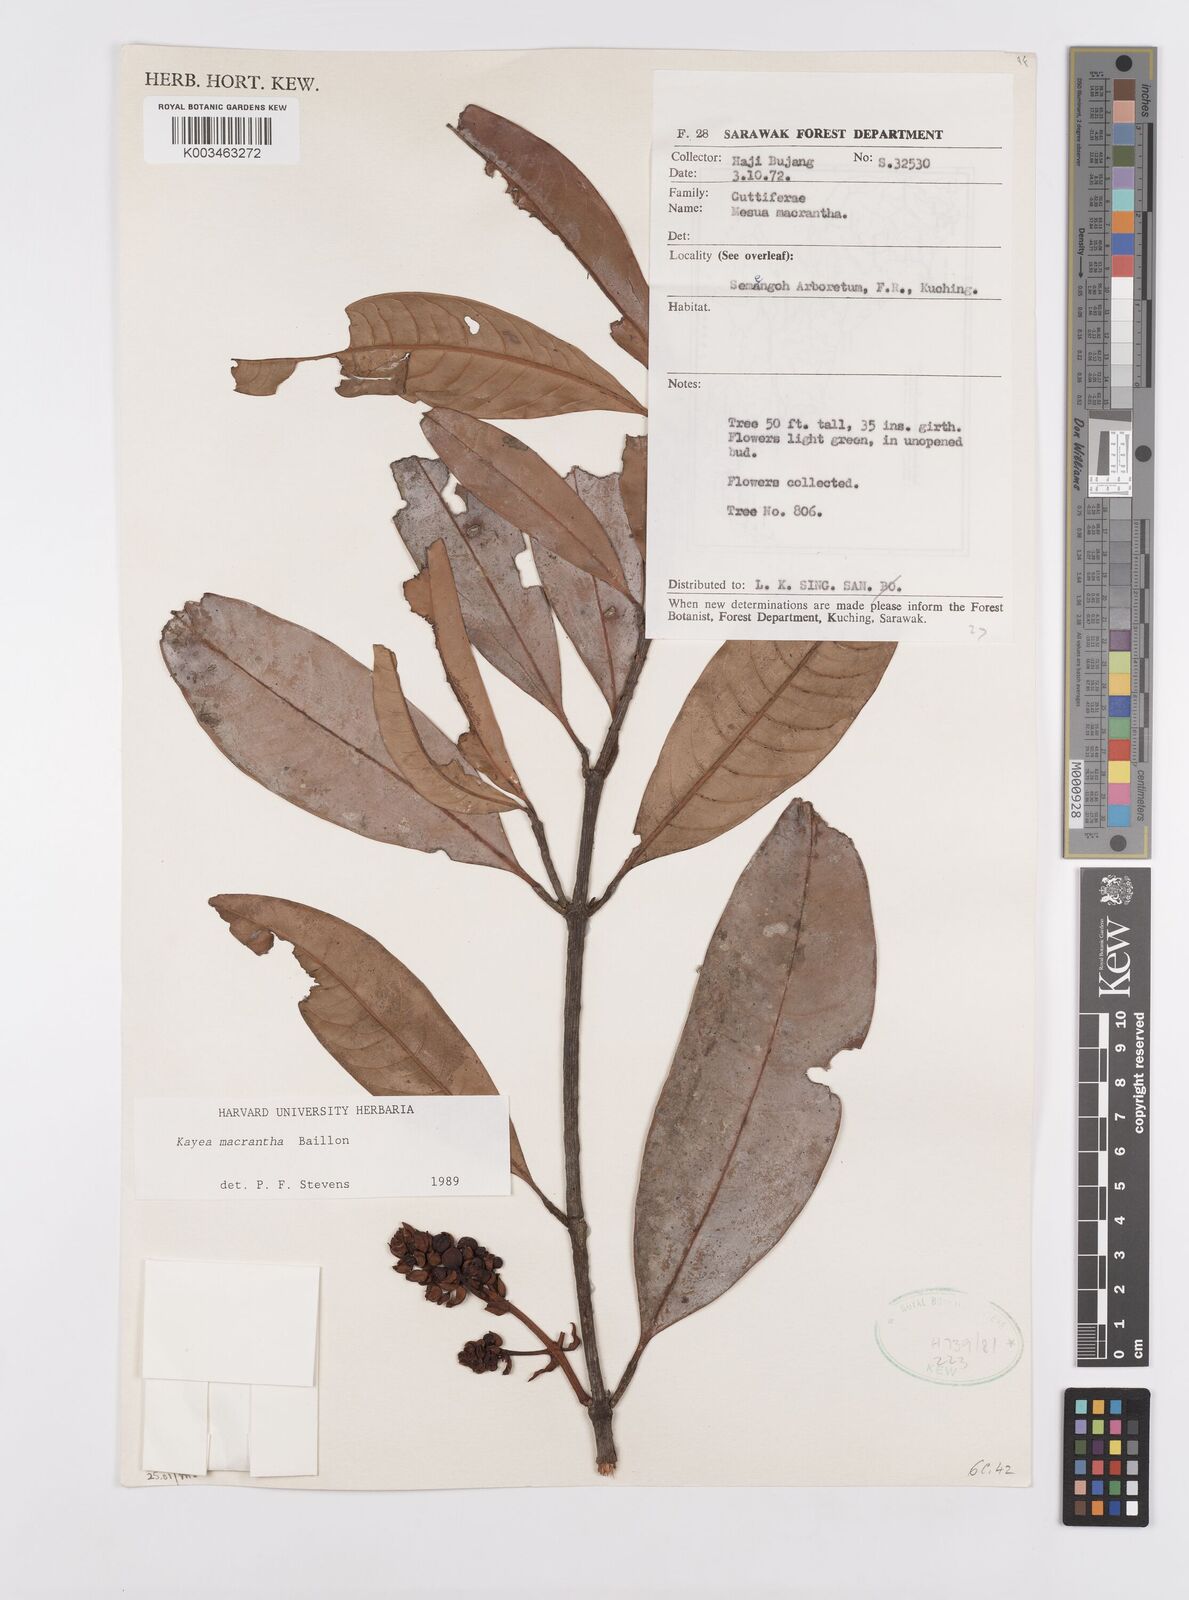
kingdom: Plantae
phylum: Tracheophyta
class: Magnoliopsida
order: Malpighiales
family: Calophyllaceae
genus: Kayea
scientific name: Kayea macrantha
